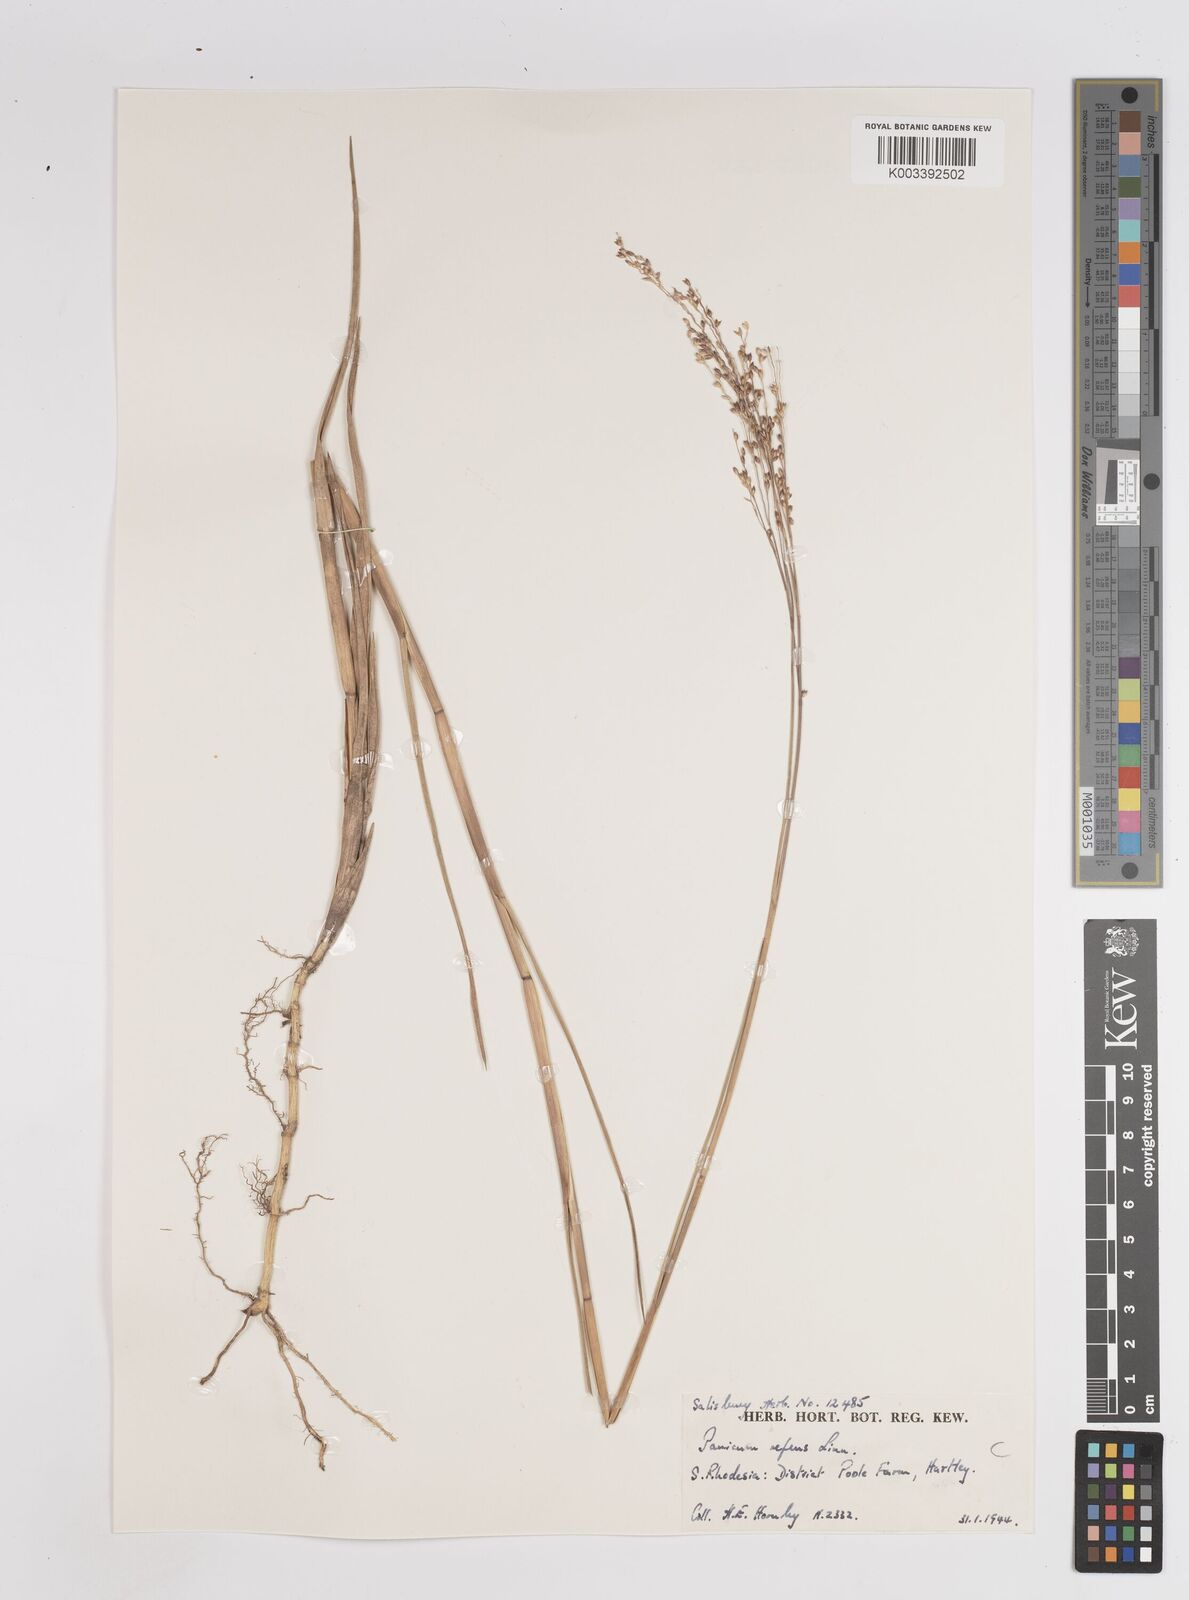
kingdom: Plantae
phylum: Tracheophyta
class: Liliopsida
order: Poales
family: Poaceae
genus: Panicum
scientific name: Panicum repens
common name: Torpedo grass
